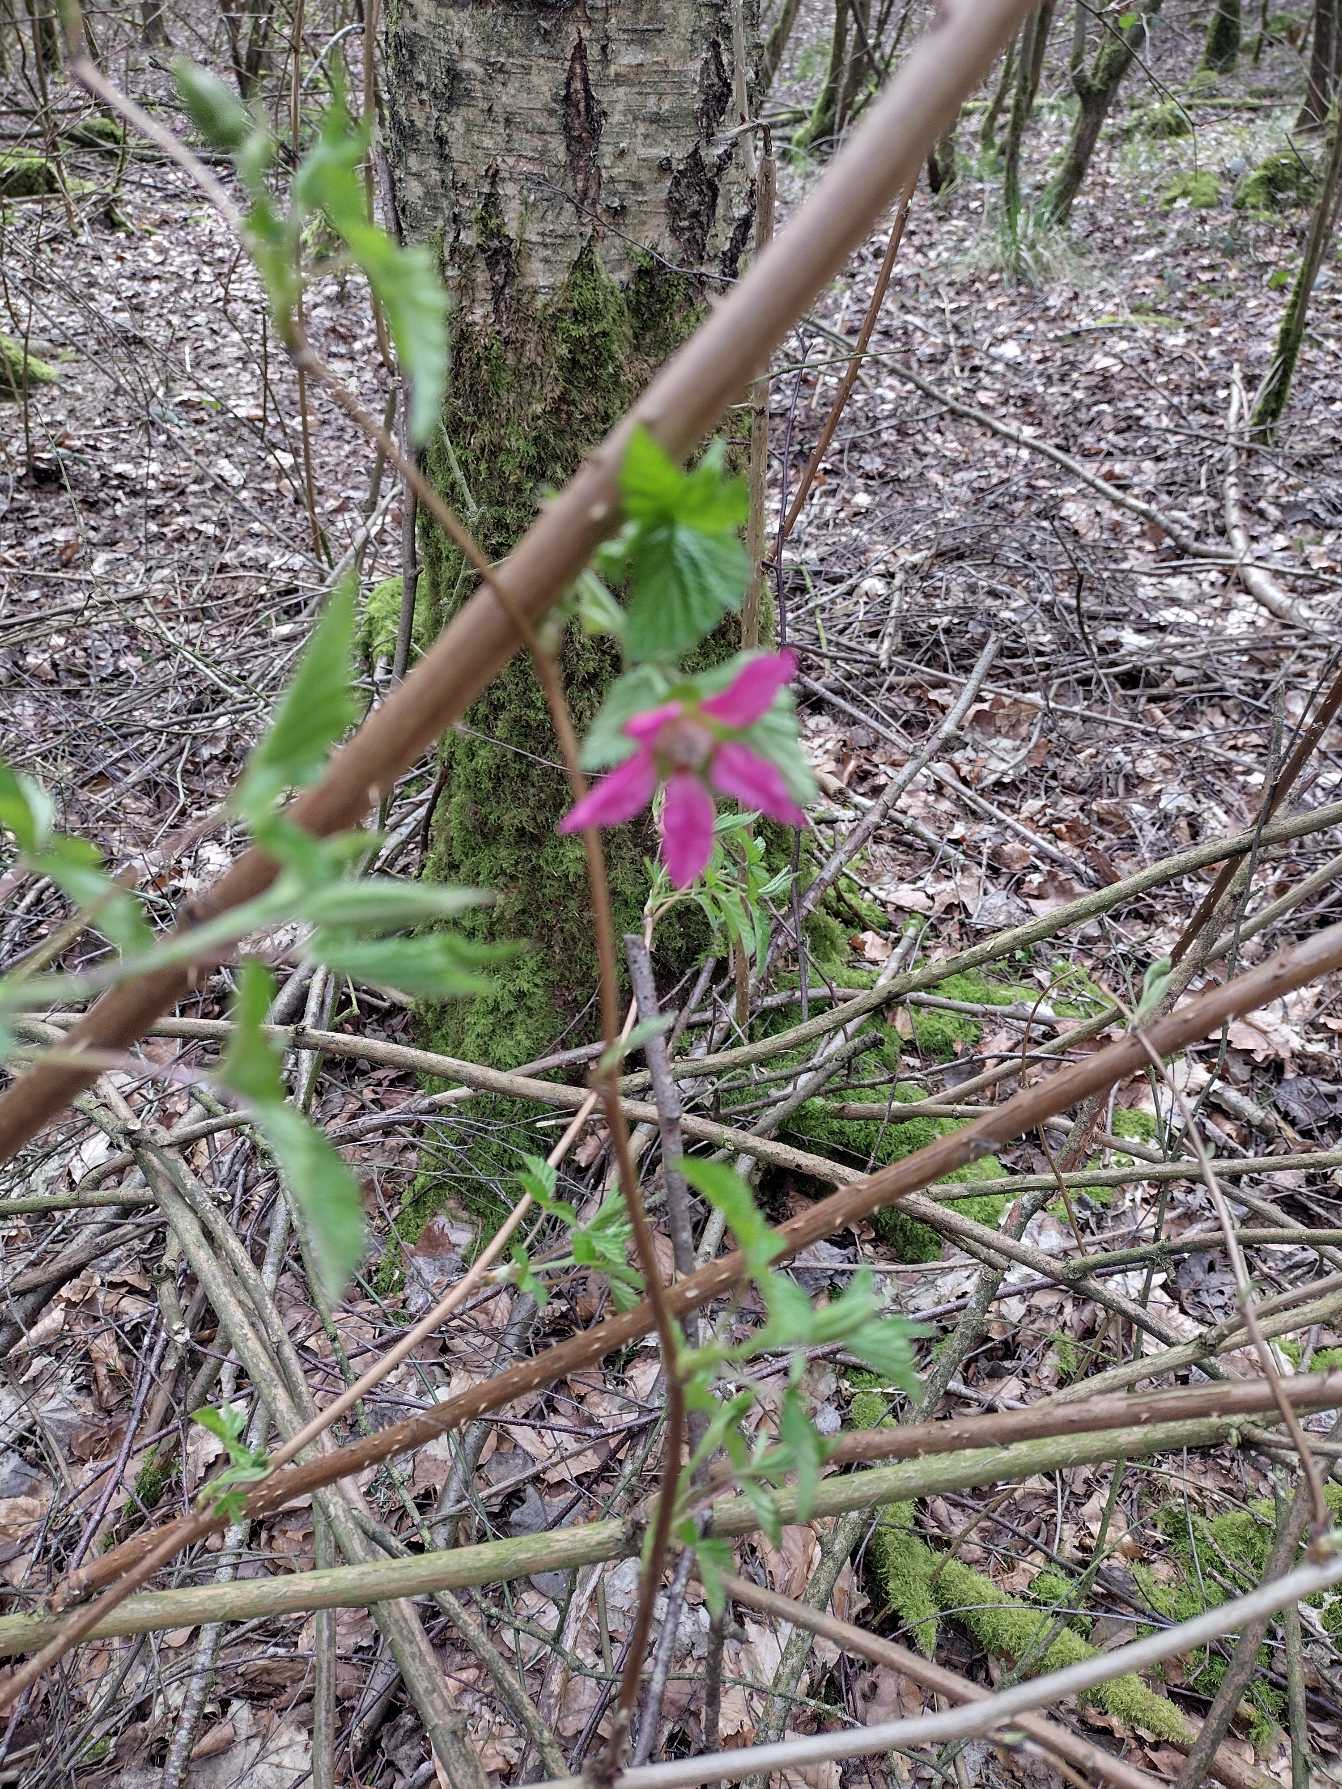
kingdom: Plantae
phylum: Tracheophyta
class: Magnoliopsida
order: Rosales
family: Rosaceae
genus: Rubus
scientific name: Rubus spectabilis
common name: Laksebær
